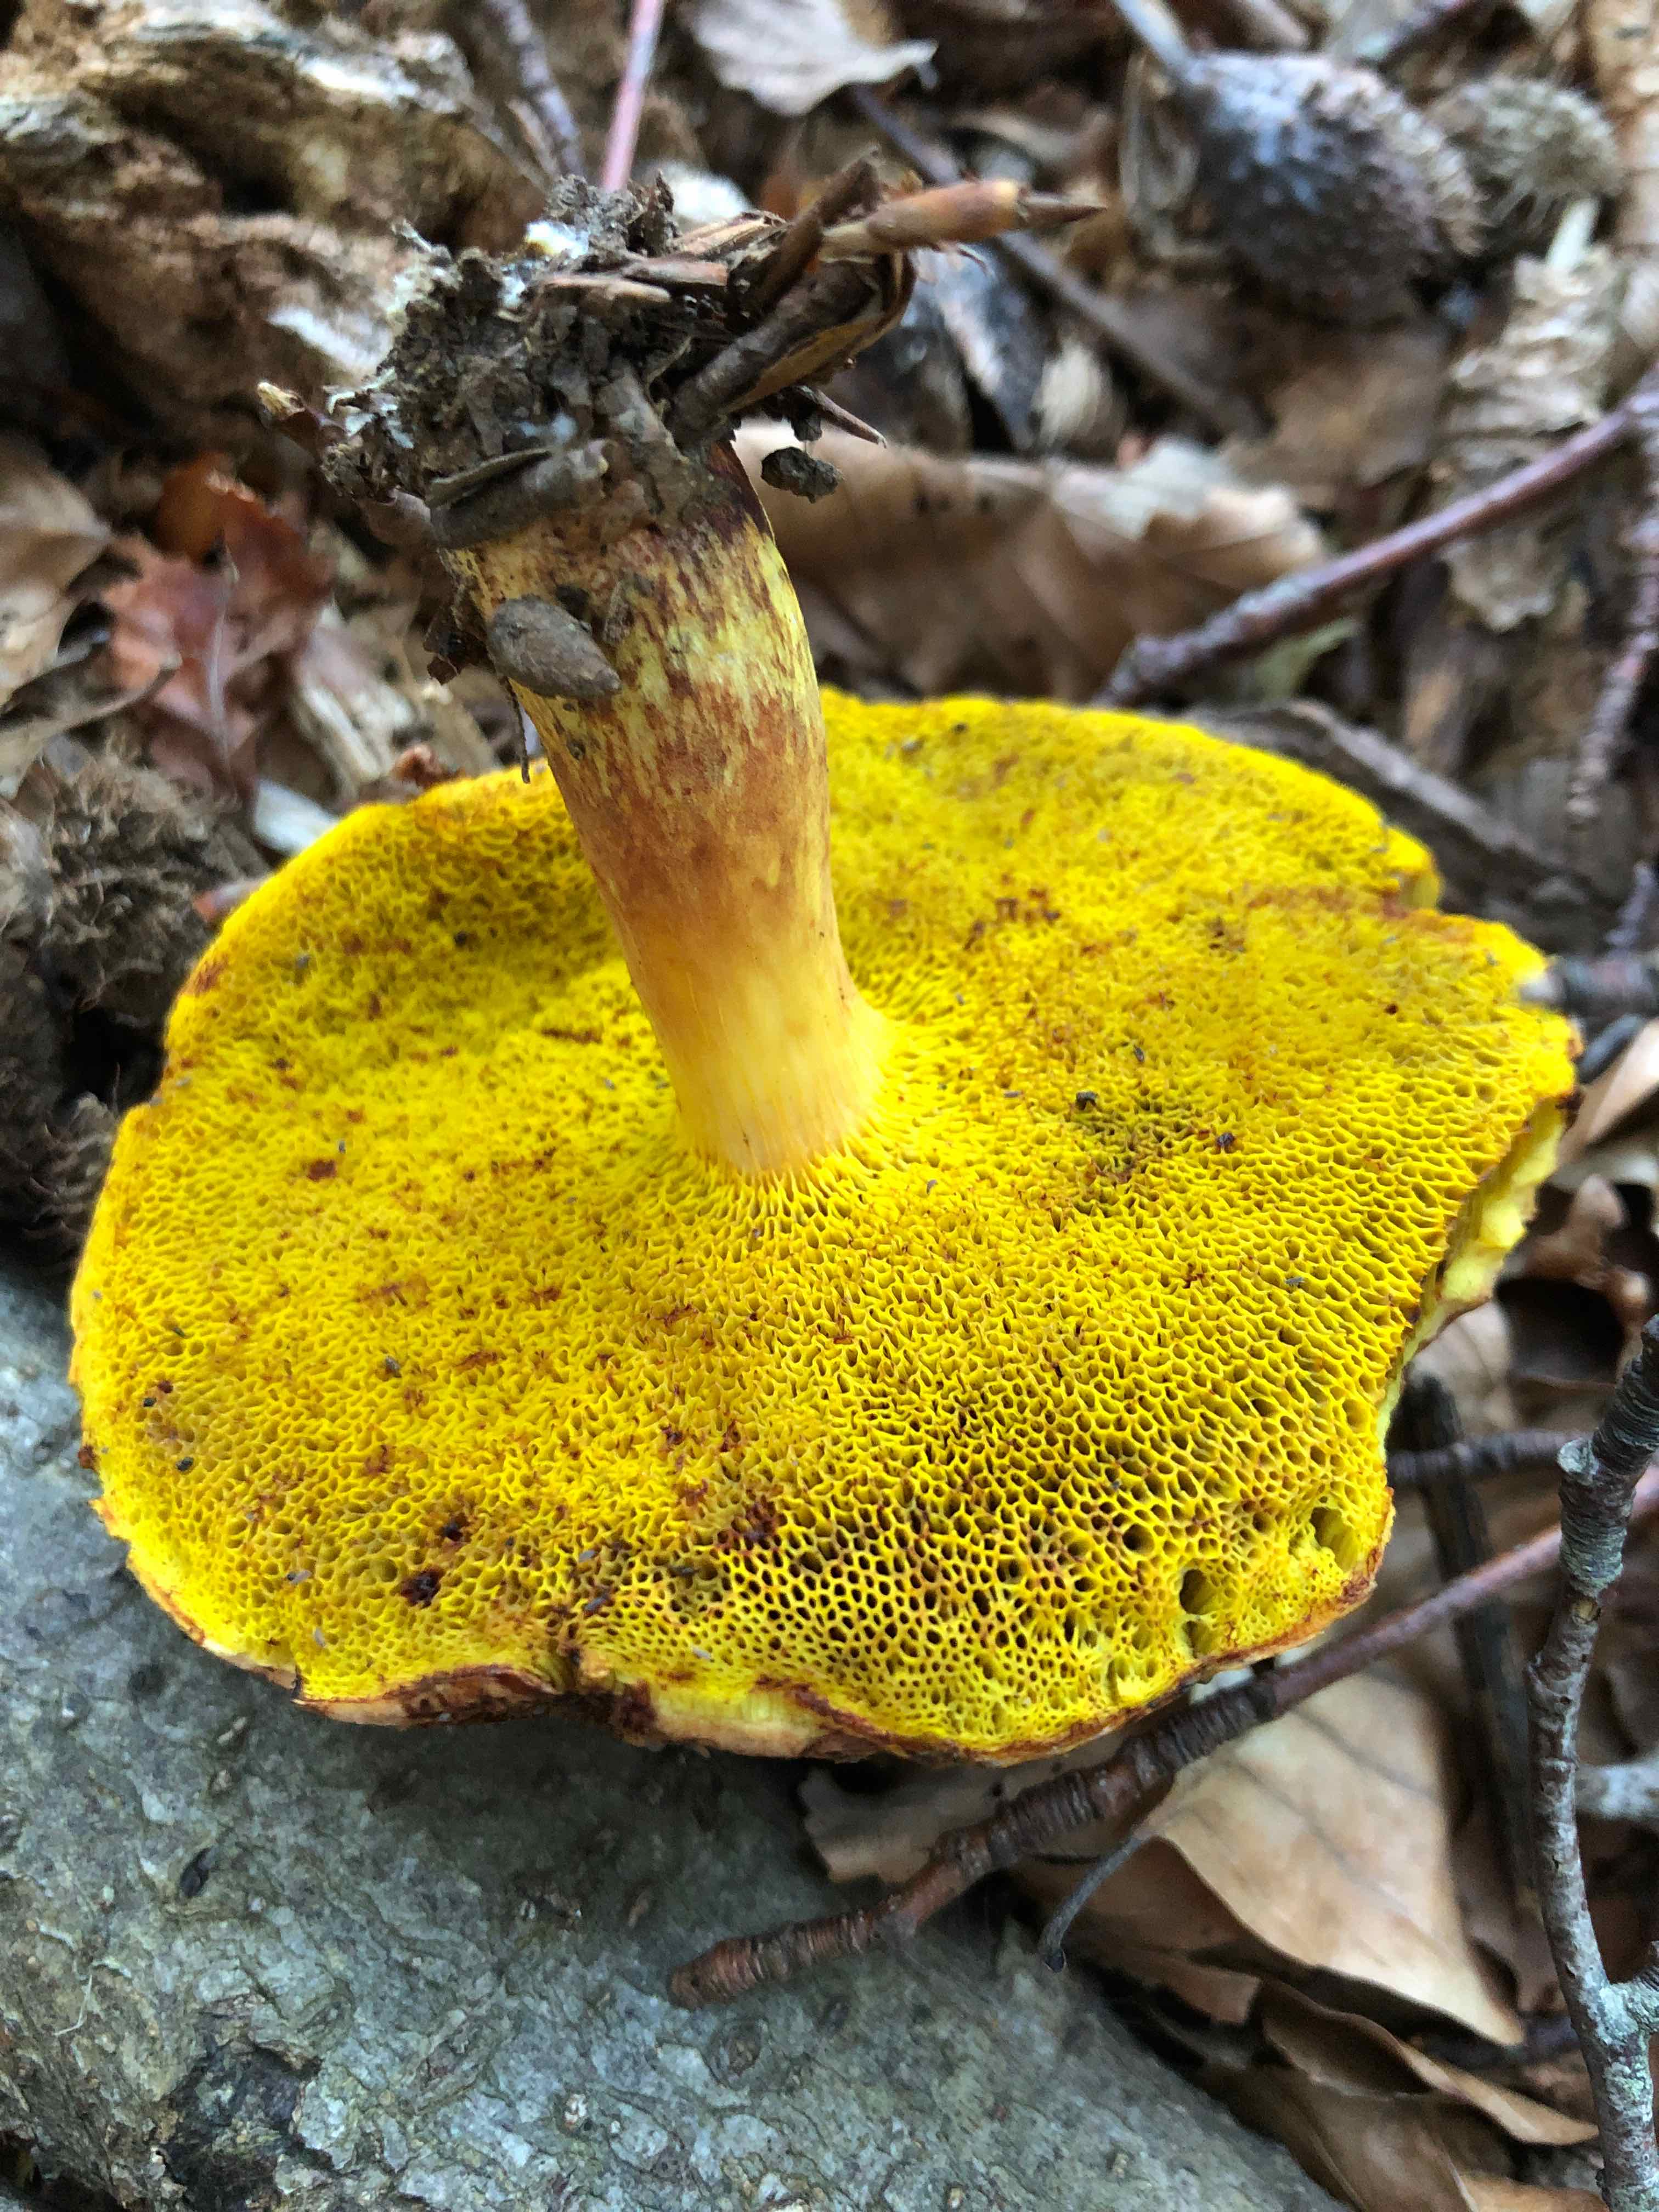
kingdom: Fungi
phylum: Basidiomycota
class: Agaricomycetes
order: Boletales
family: Boletaceae
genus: Aureoboletus
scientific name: Aureoboletus gentilis
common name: guldrørhat
